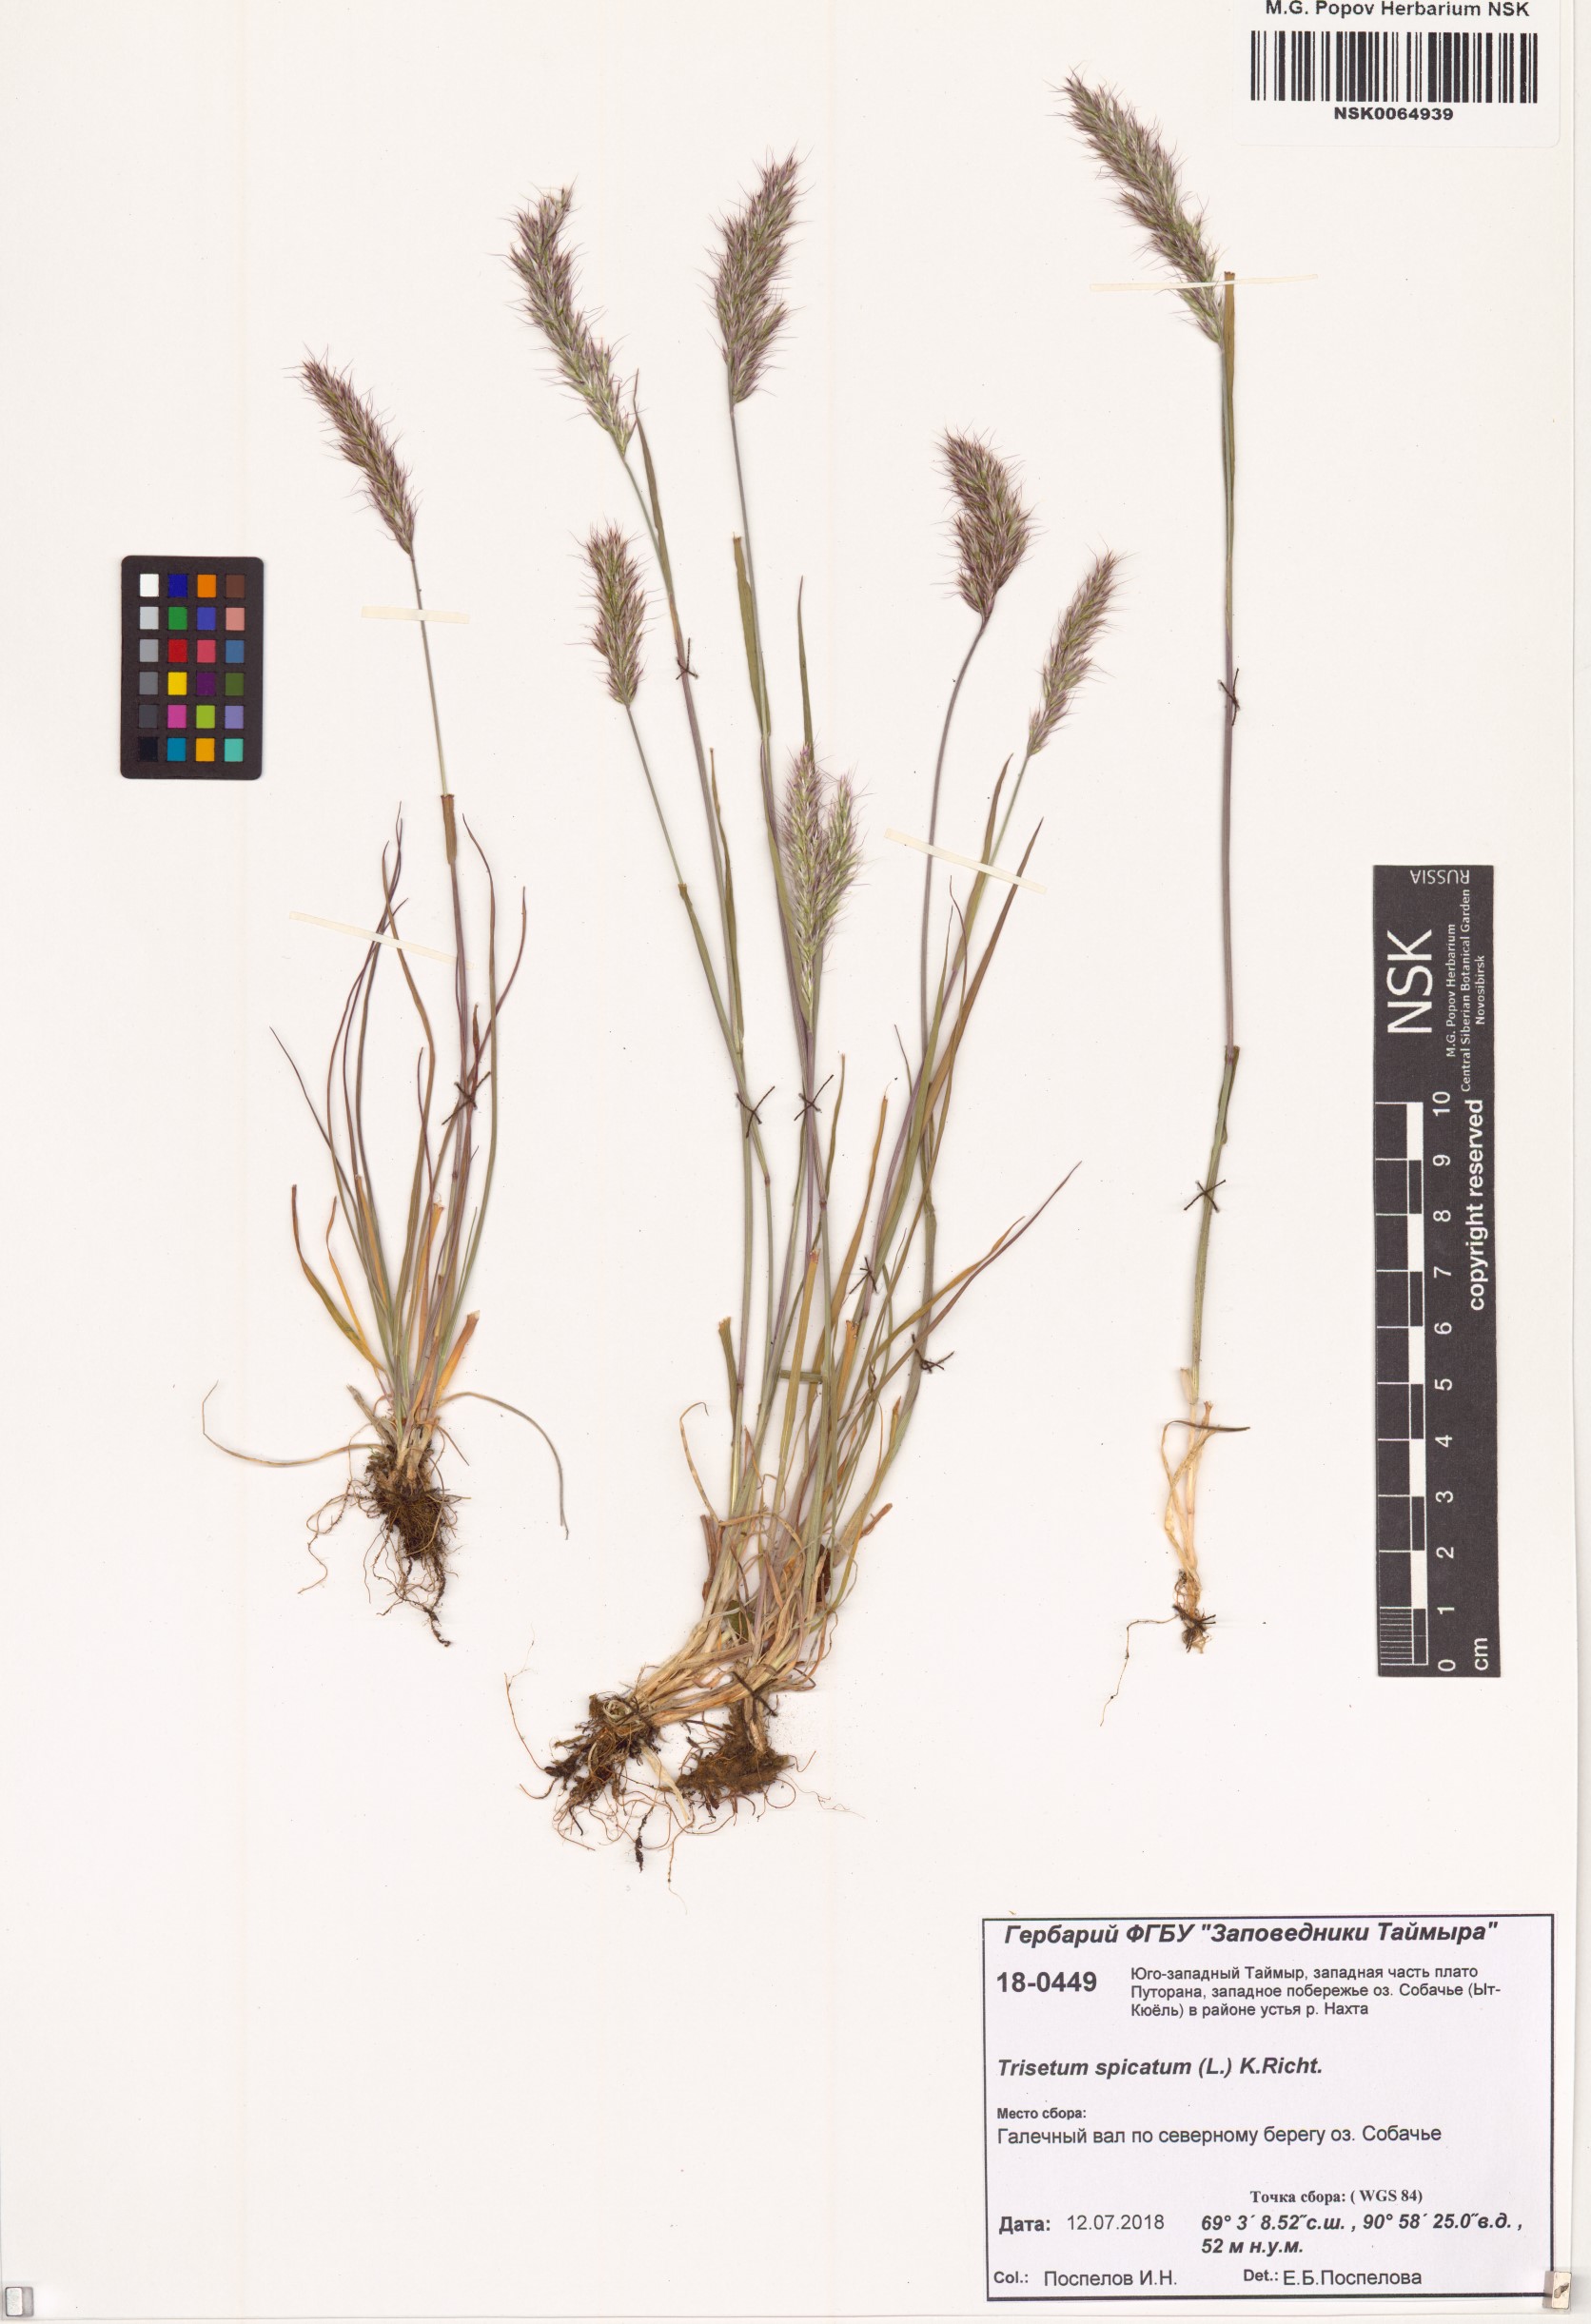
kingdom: Plantae
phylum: Tracheophyta
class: Liliopsida
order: Poales
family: Poaceae
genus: Koeleria
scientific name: Koeleria spicata
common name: Mountain trisetum
